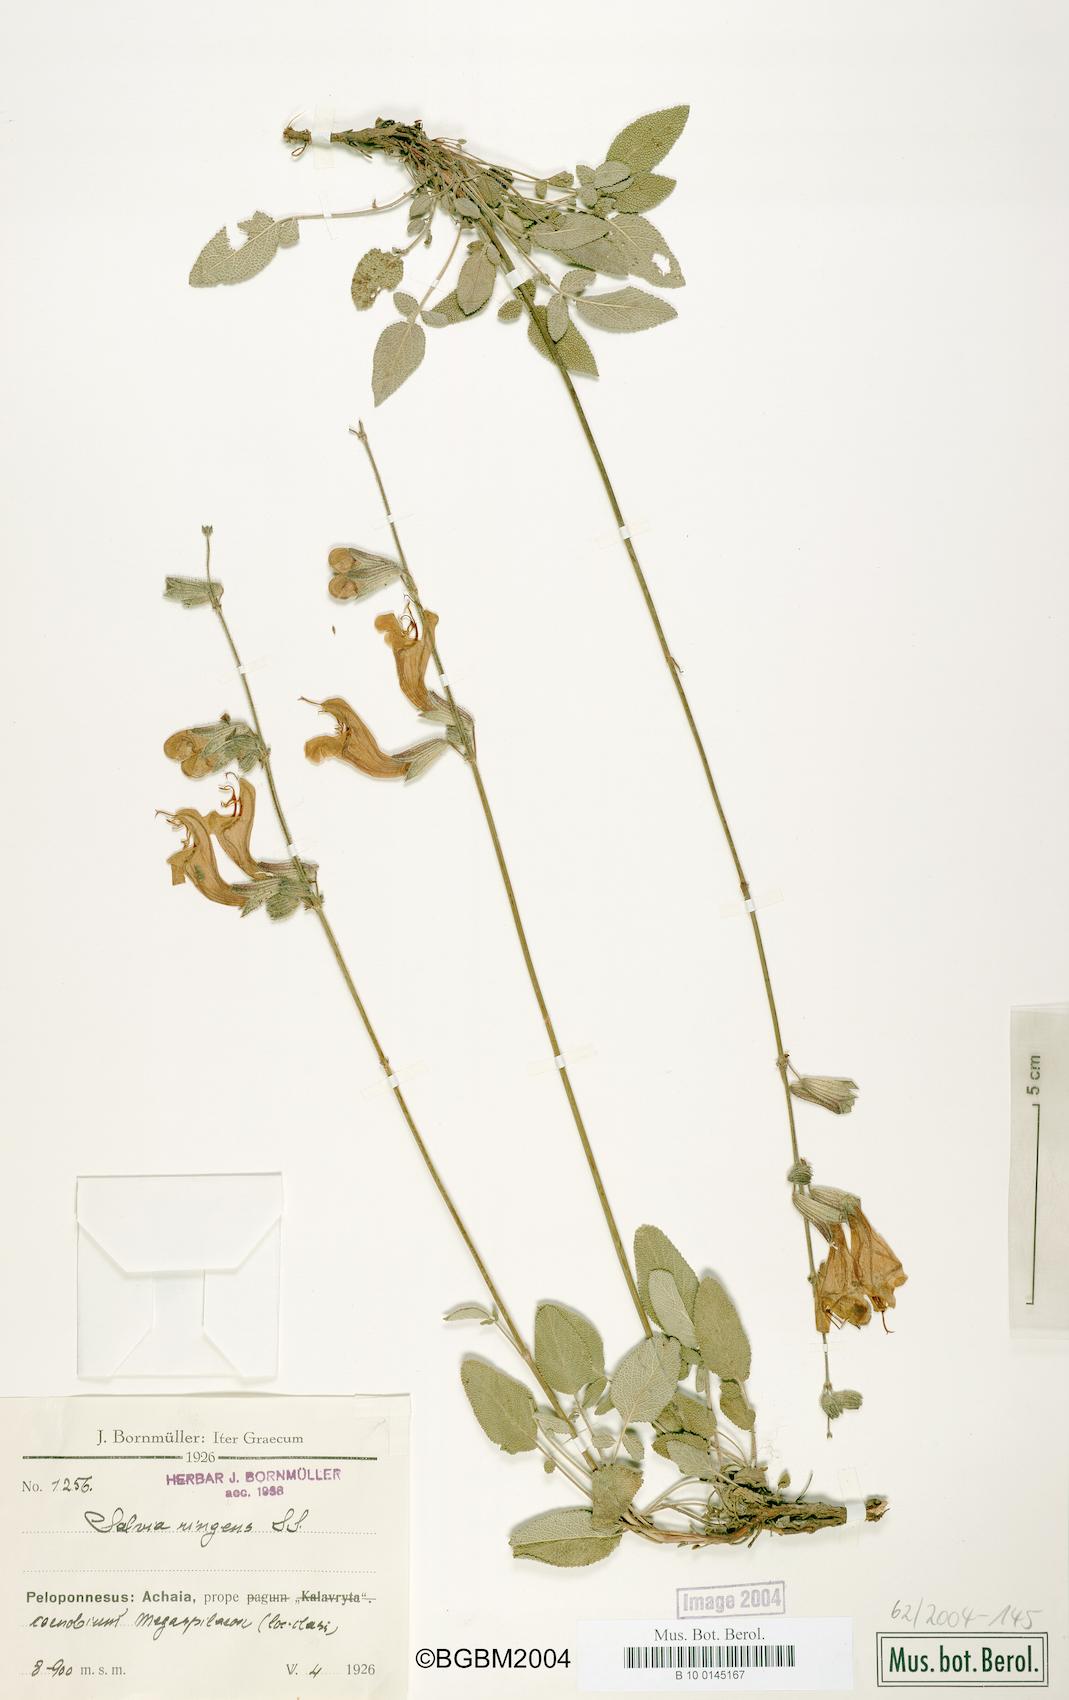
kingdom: Plantae
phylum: Tracheophyta
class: Magnoliopsida
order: Lamiales
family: Lamiaceae
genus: Salvia
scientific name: Salvia ringens
